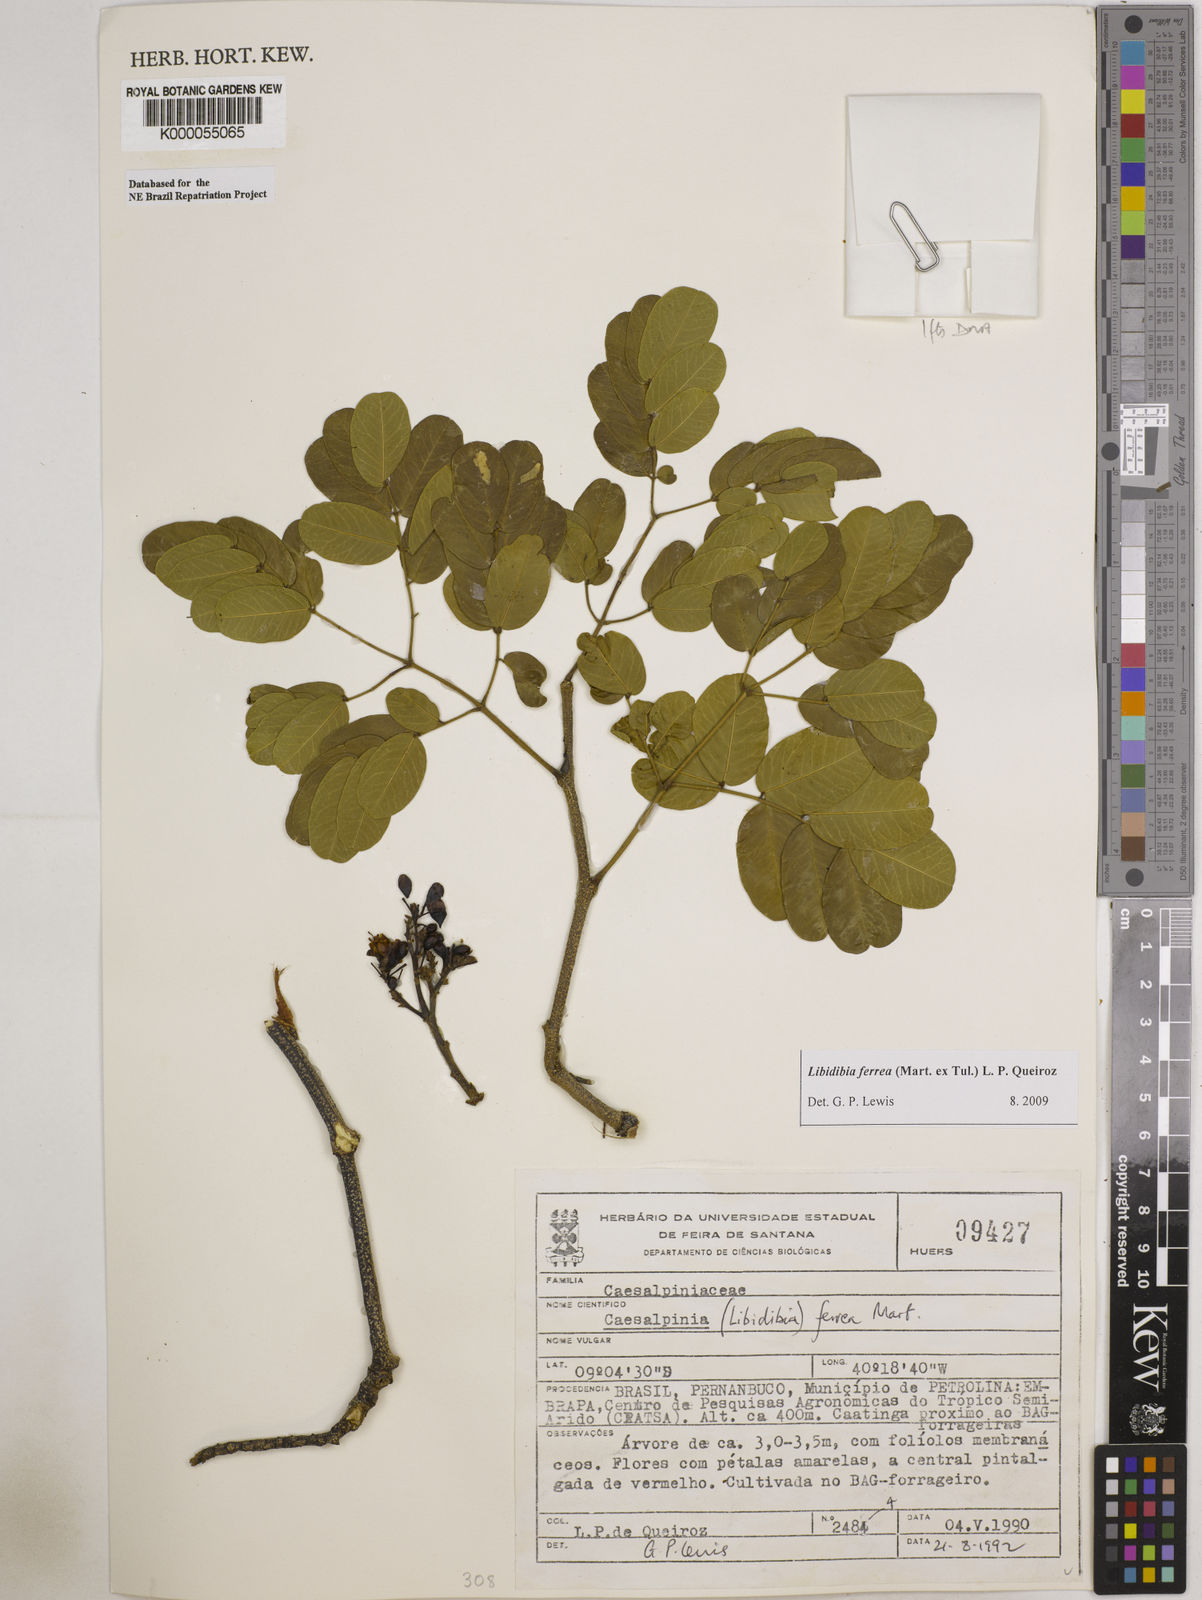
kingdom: Plantae
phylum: Tracheophyta
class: Magnoliopsida
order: Fabales
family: Fabaceae
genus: Libidibia
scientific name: Libidibia ferrea
